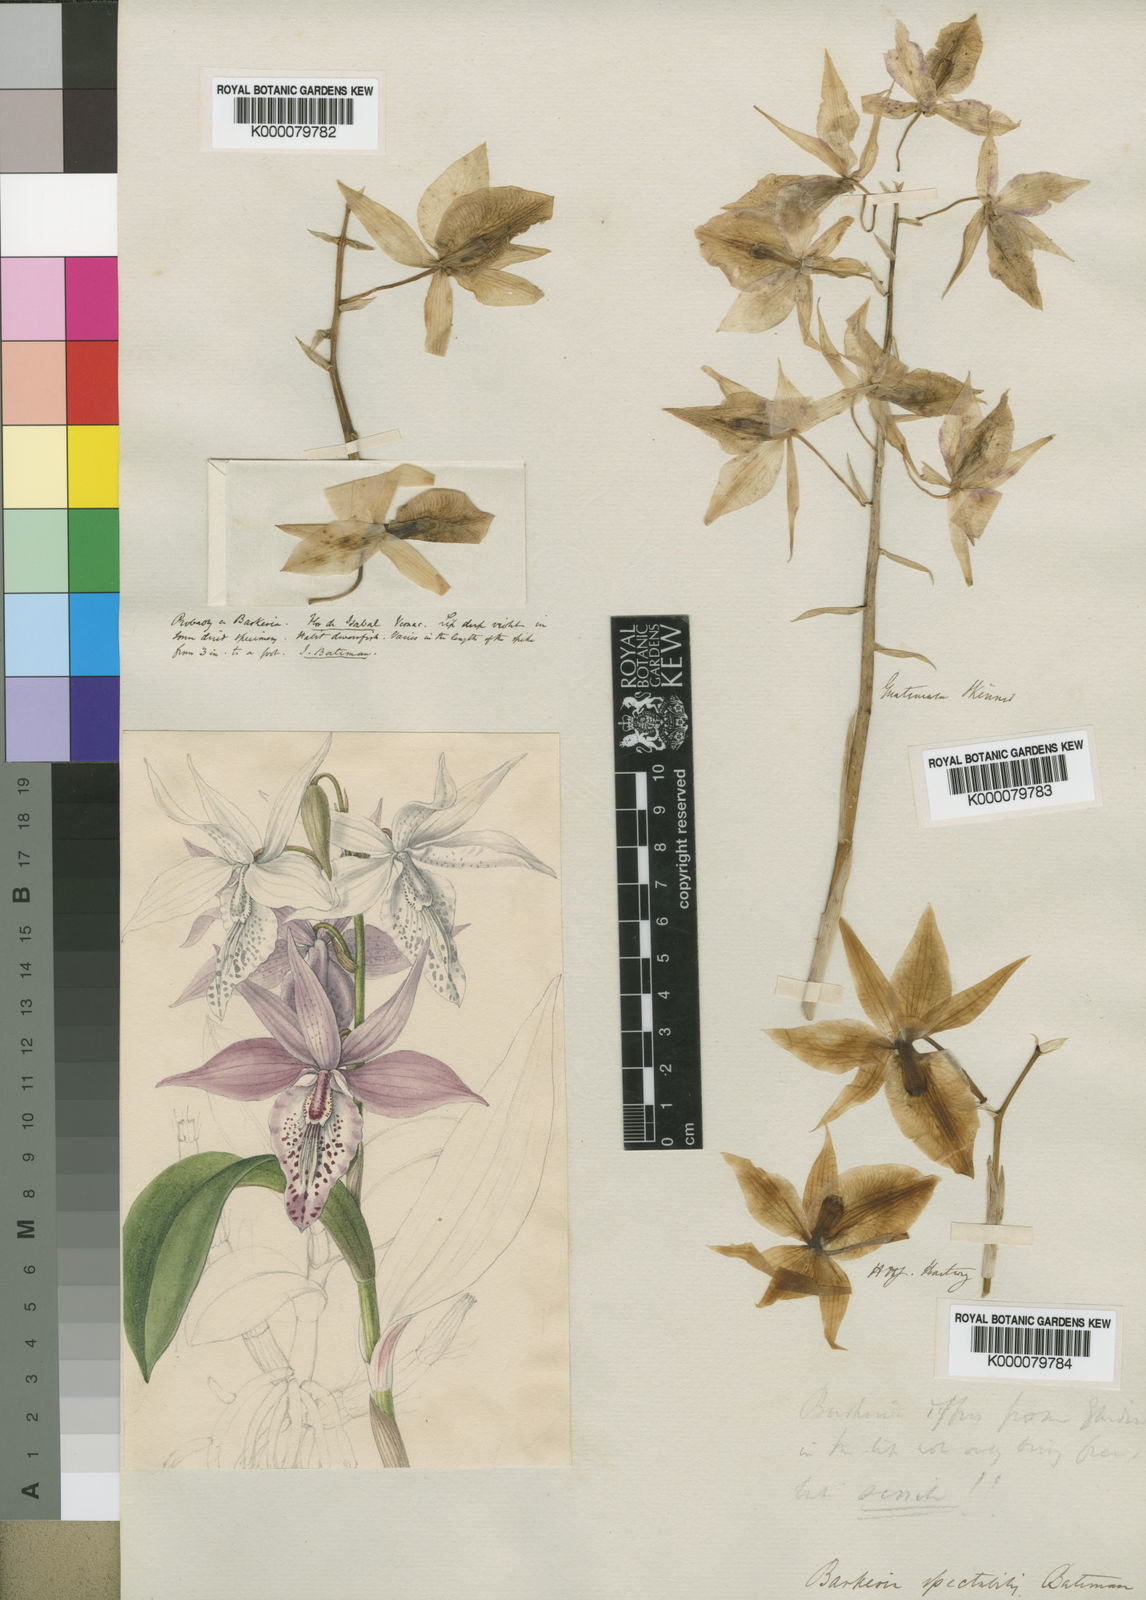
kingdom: Plantae
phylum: Tracheophyta
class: Liliopsida
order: Asparagales
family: Orchidaceae
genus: Barkeria
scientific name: Barkeria spectabilis
